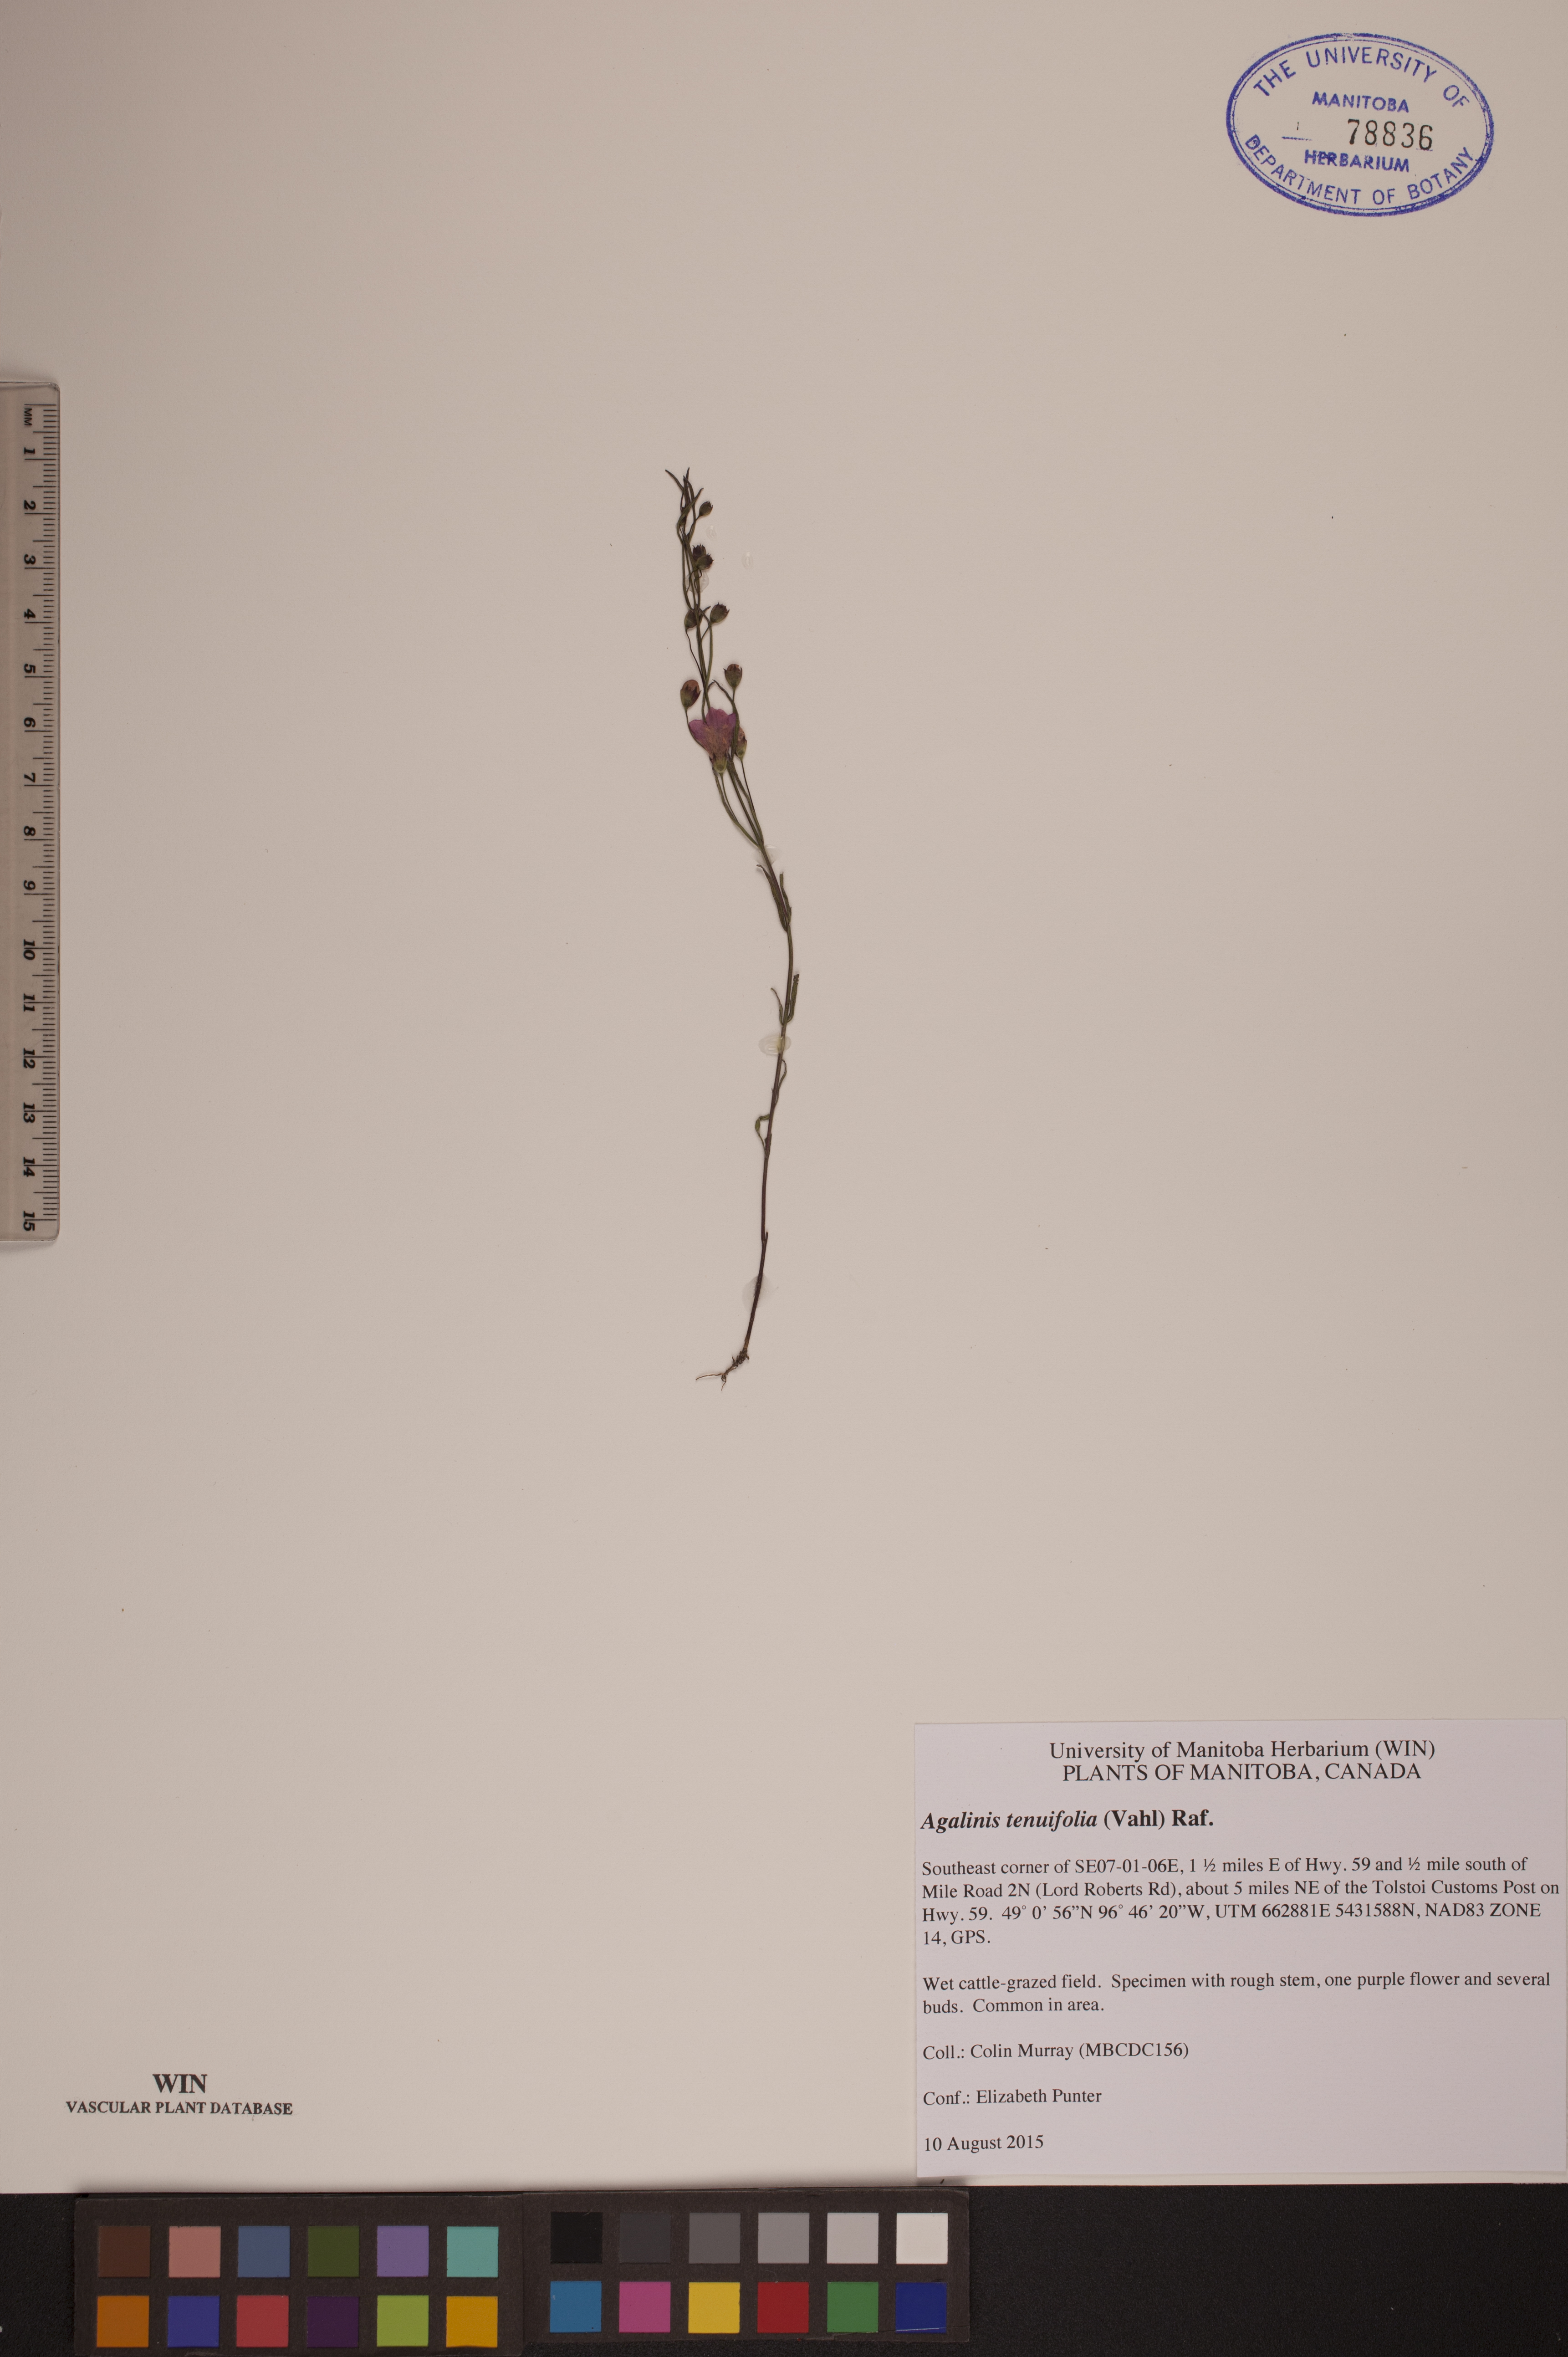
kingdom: Plantae
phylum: Tracheophyta
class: Magnoliopsida
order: Lamiales
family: Orobanchaceae
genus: Agalinis
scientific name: Agalinis tenuifolia
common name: Slender agalinis
